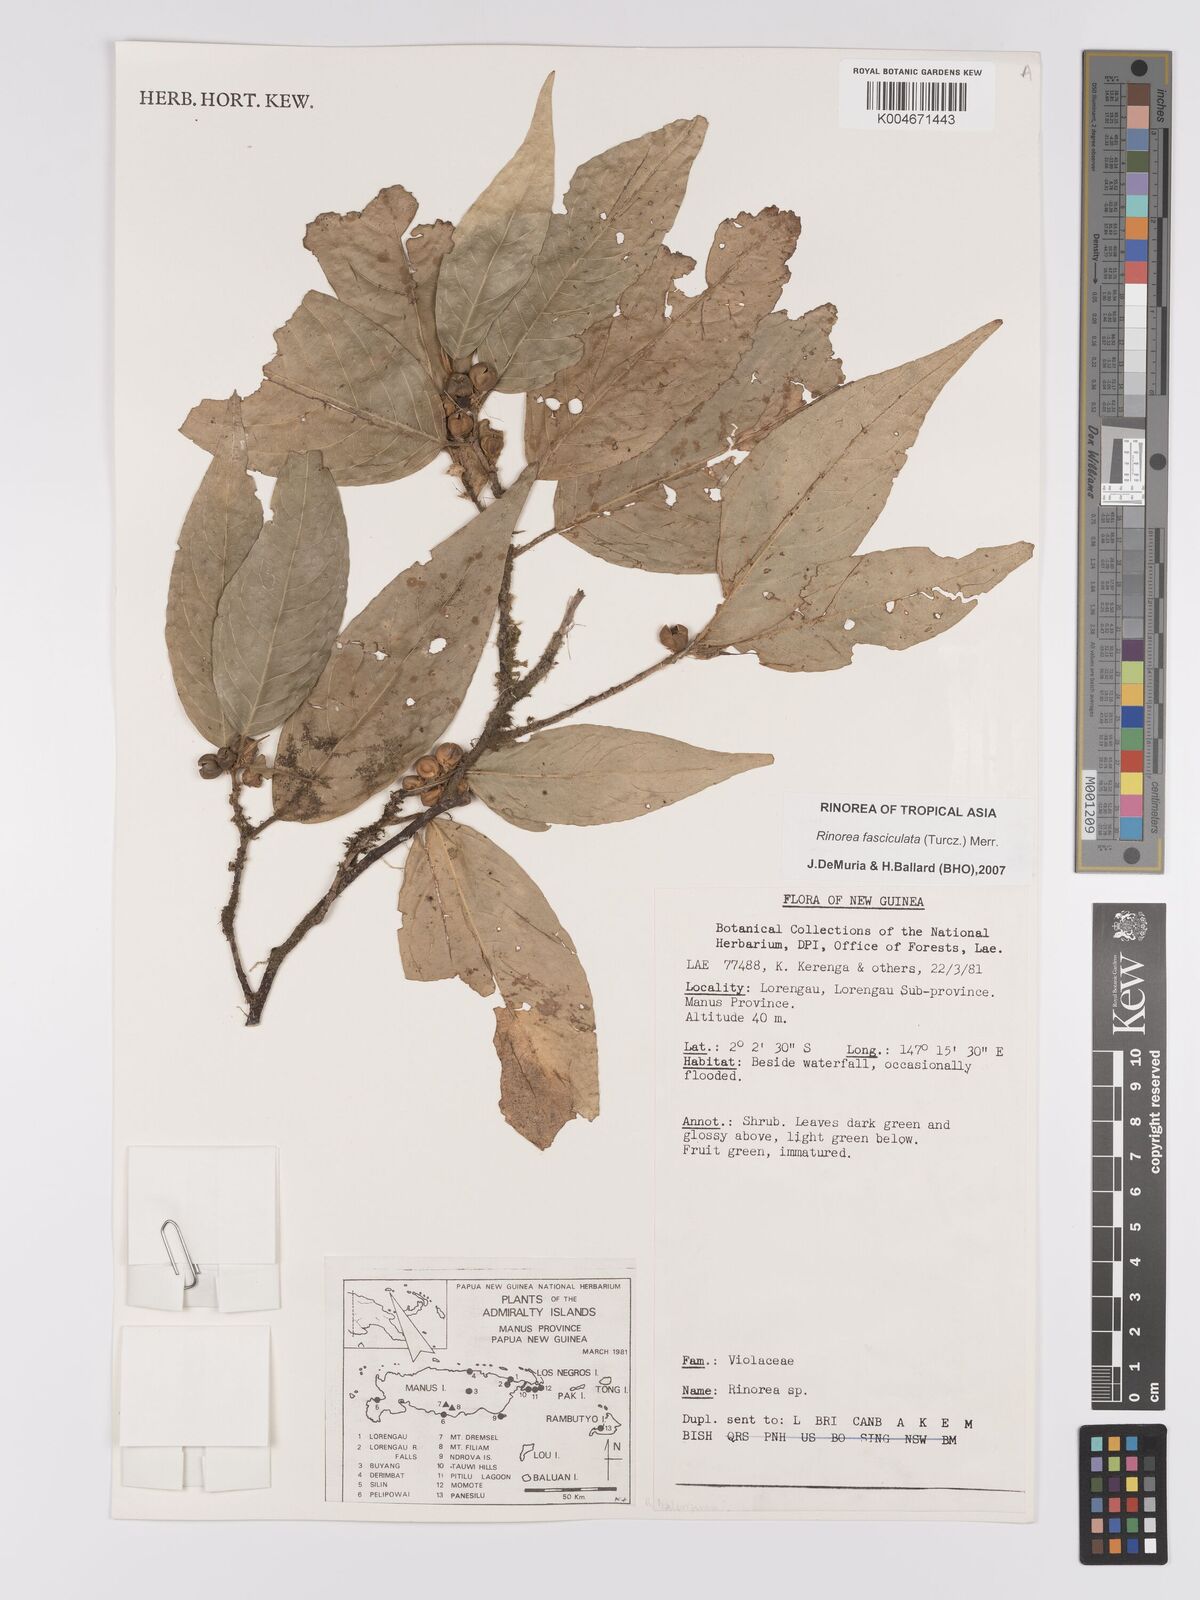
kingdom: Plantae
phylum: Tracheophyta
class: Magnoliopsida
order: Malpighiales
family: Violaceae
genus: Rinorea
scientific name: Rinorea bengalensis
